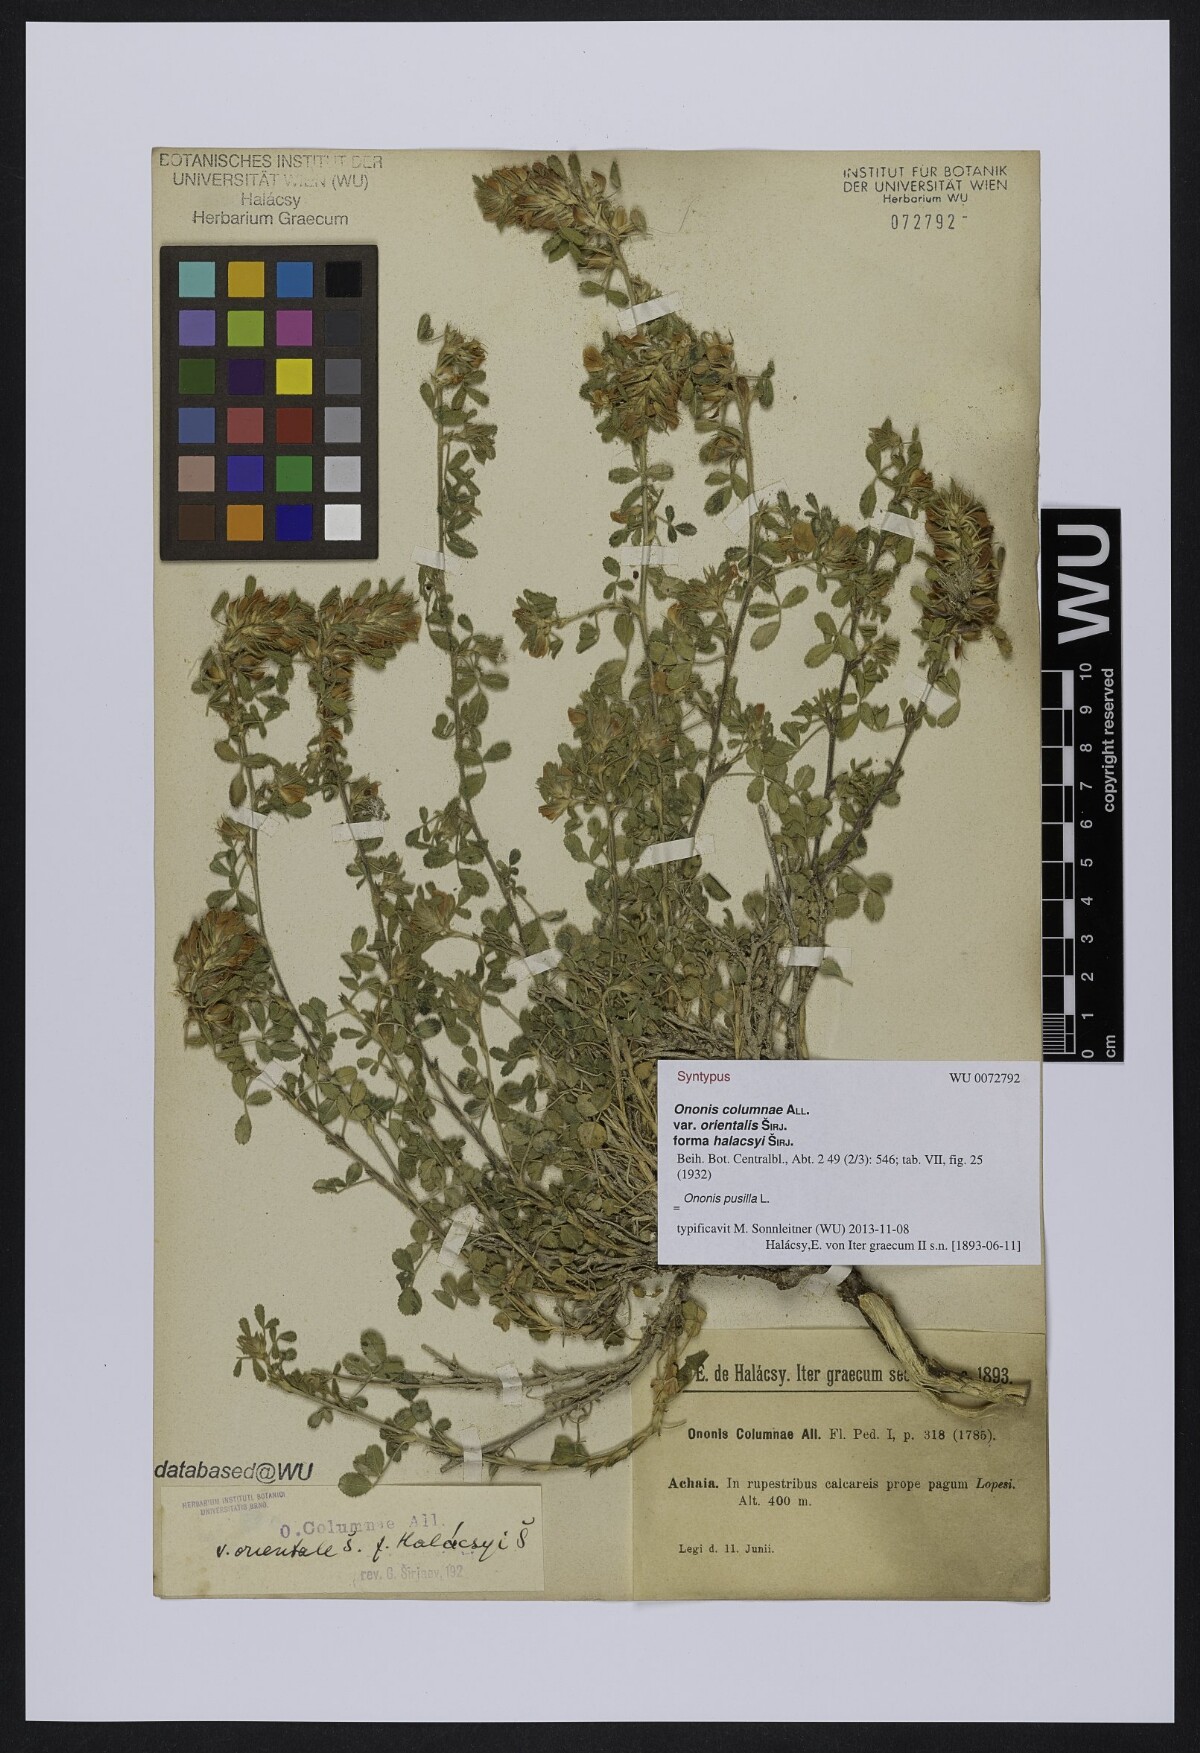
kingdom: Plantae
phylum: Tracheophyta
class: Magnoliopsida
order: Fabales
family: Fabaceae
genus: Ononis
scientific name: Ononis pusilla
